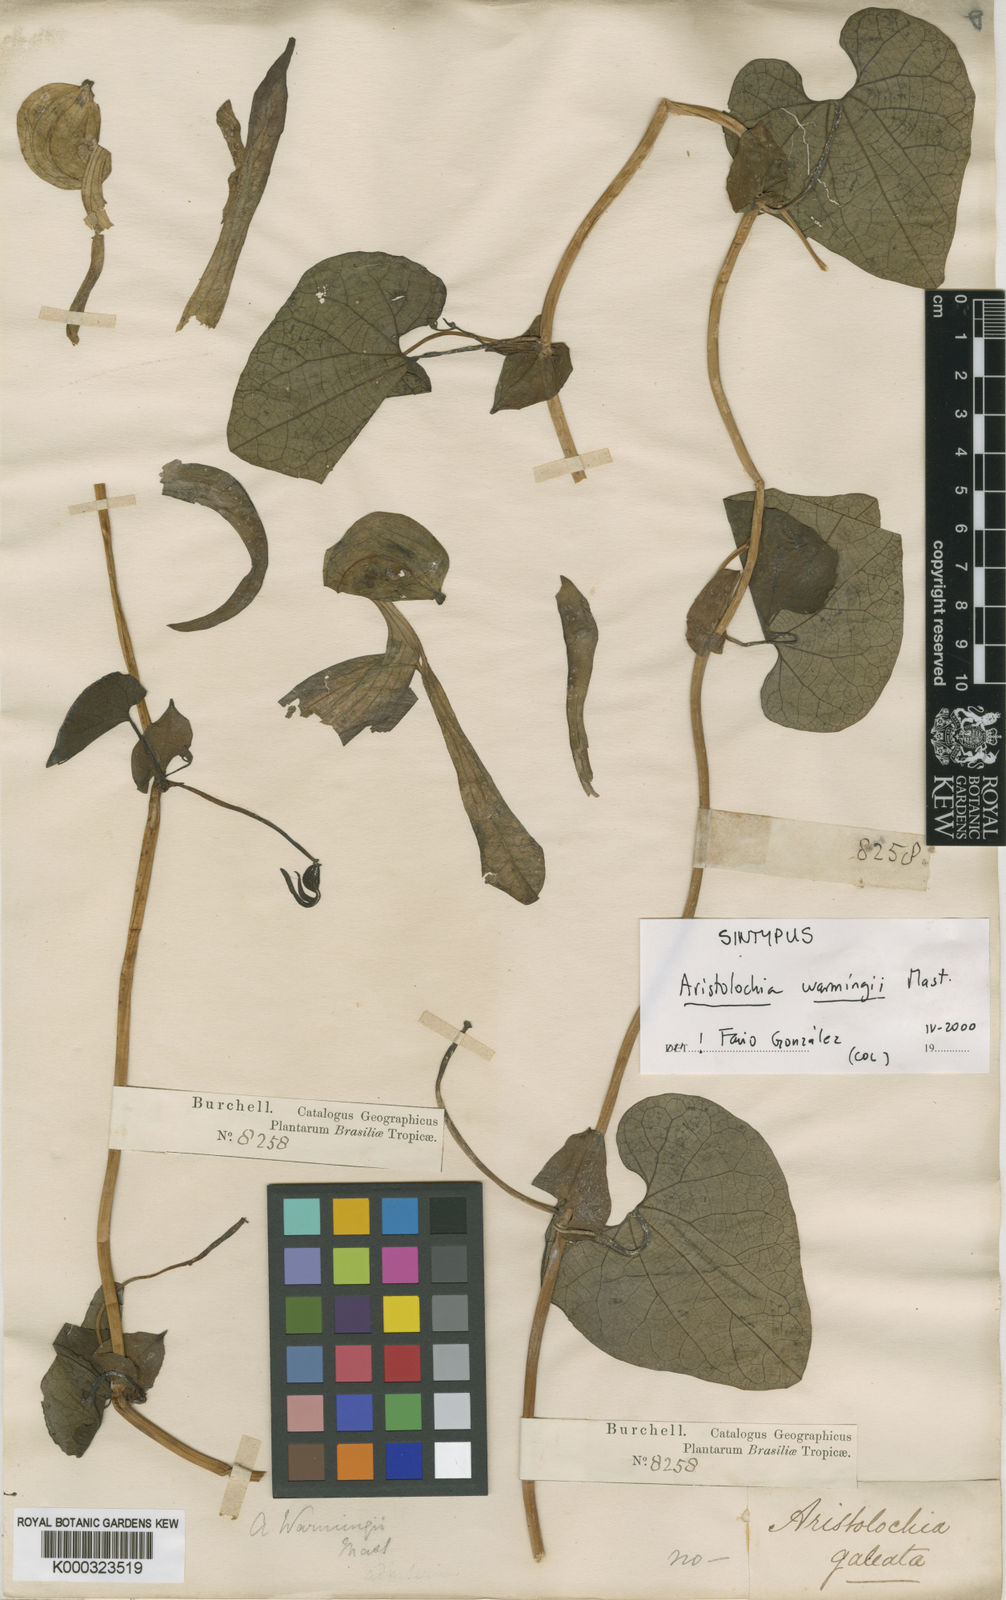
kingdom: Plantae
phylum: Tracheophyta
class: Magnoliopsida
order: Piperales
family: Aristolochiaceae
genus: Aristolochia
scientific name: Aristolochia warmingii
